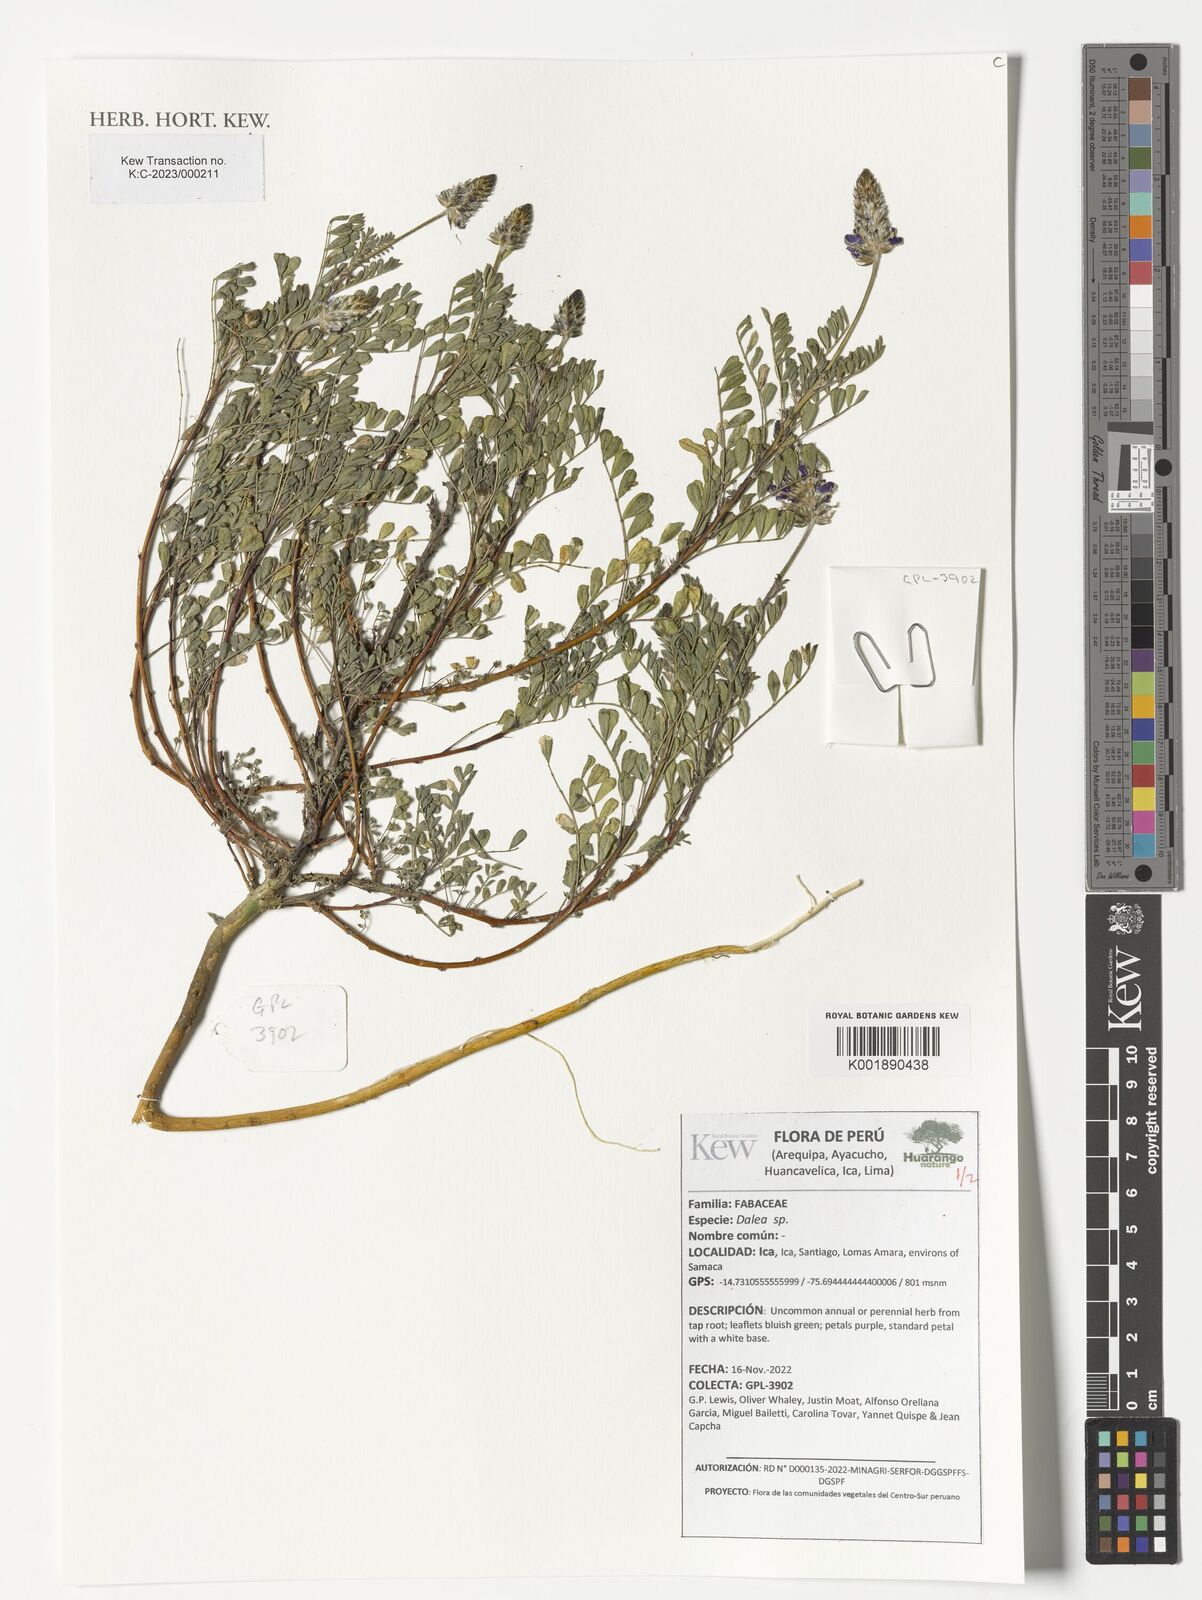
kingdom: Plantae
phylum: Tracheophyta
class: Magnoliopsida
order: Fabales
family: Fabaceae
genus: Dalea
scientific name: Dalea
